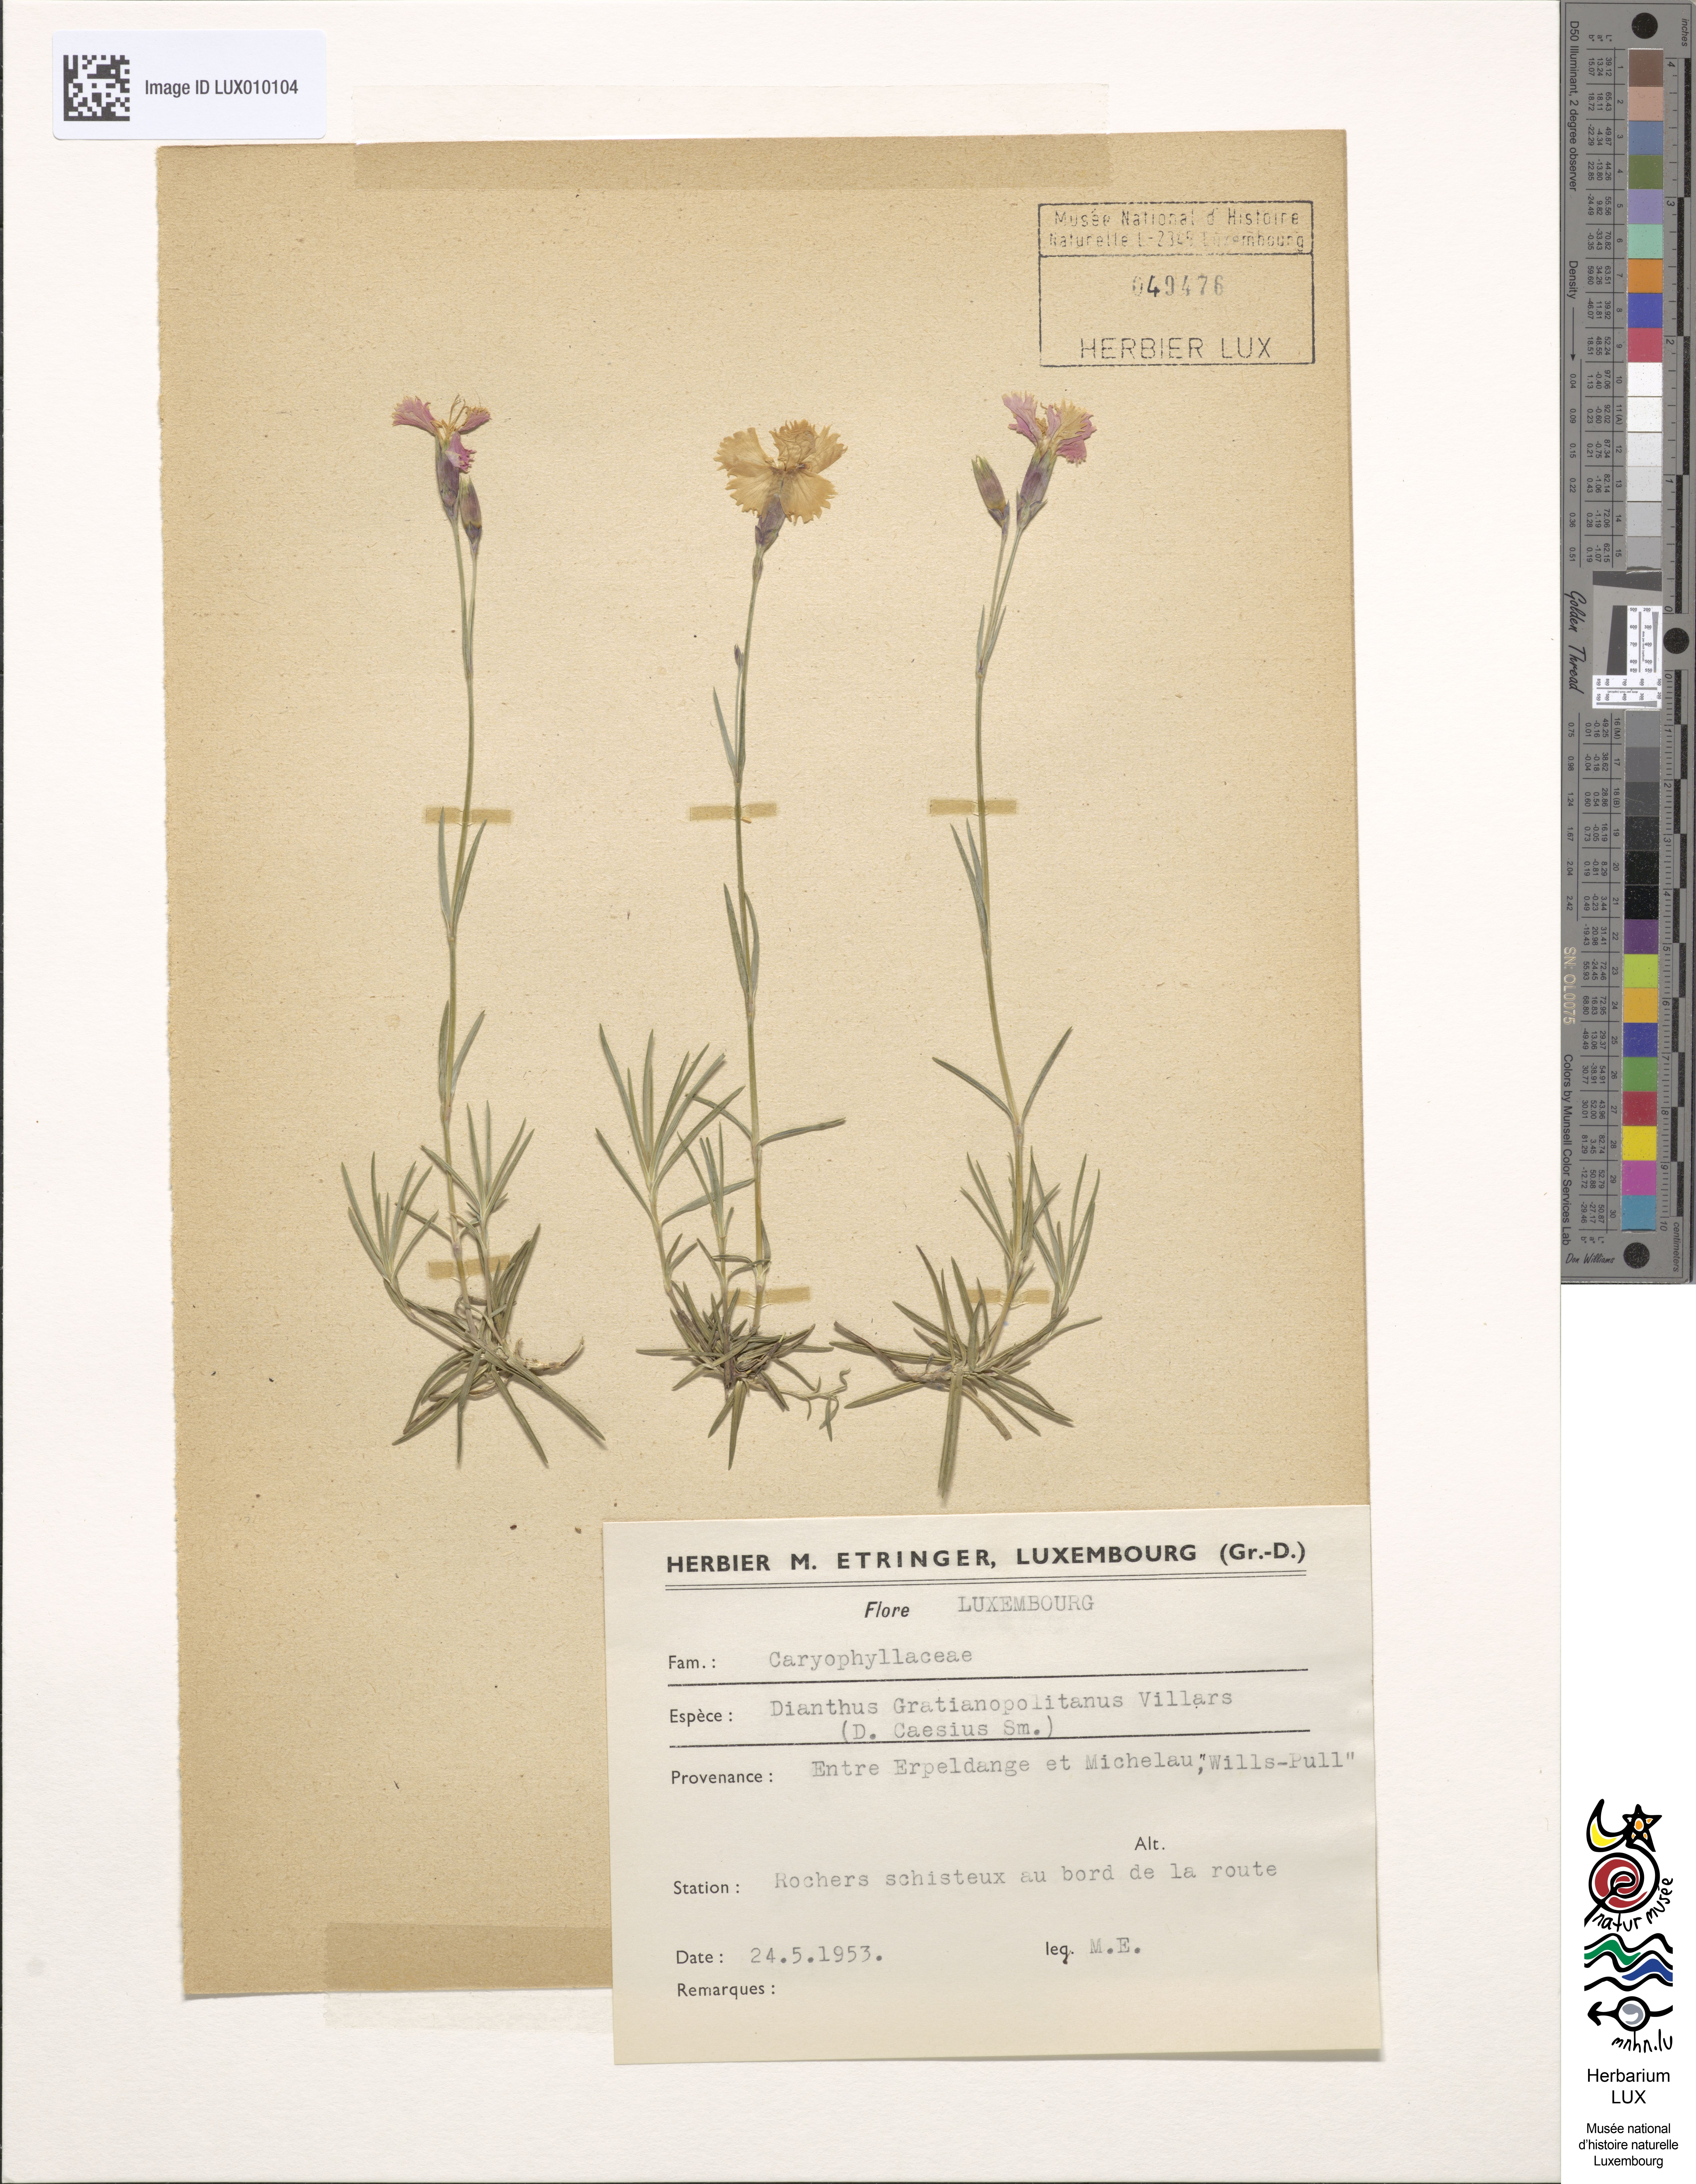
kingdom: Plantae
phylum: Tracheophyta
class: Magnoliopsida
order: Caryophyllales
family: Caryophyllaceae
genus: Dianthus
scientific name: Dianthus gratianopolitanus
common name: Cheddar pink
